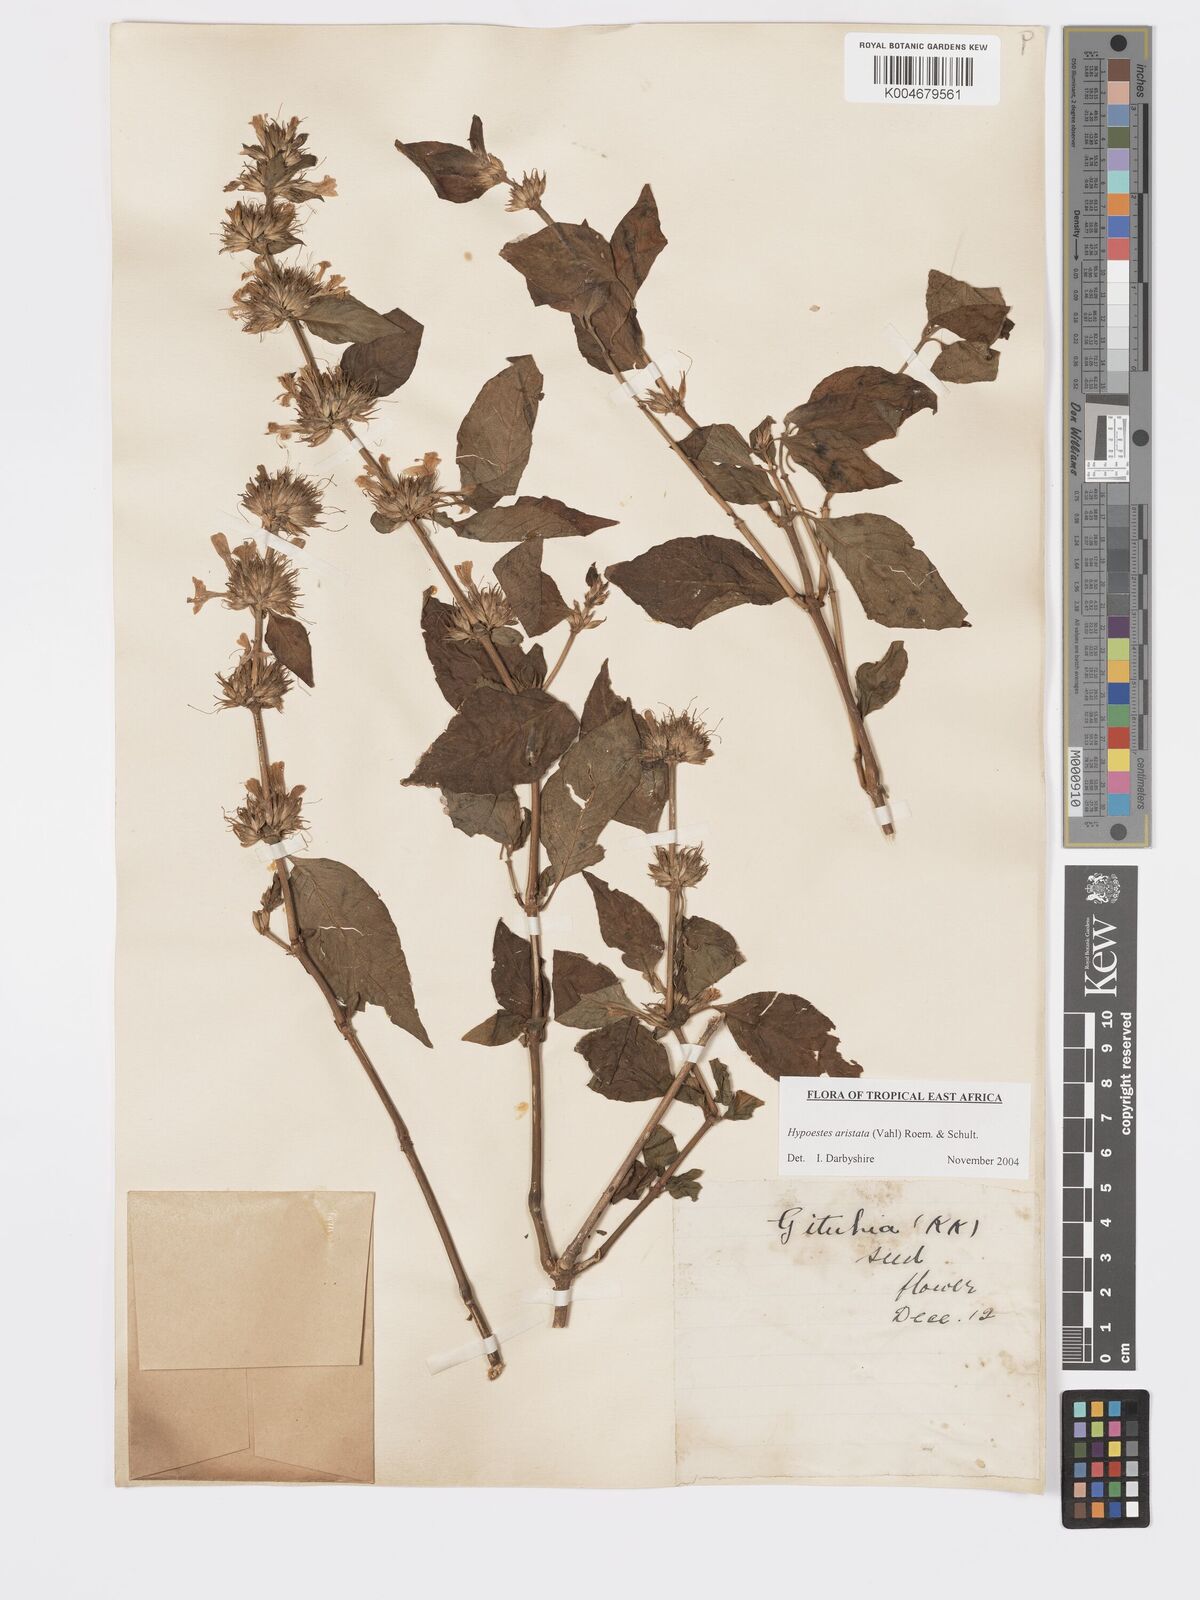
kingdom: Plantae
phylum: Tracheophyta
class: Magnoliopsida
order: Lamiales
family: Acanthaceae
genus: Hypoestes
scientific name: Hypoestes aristata
